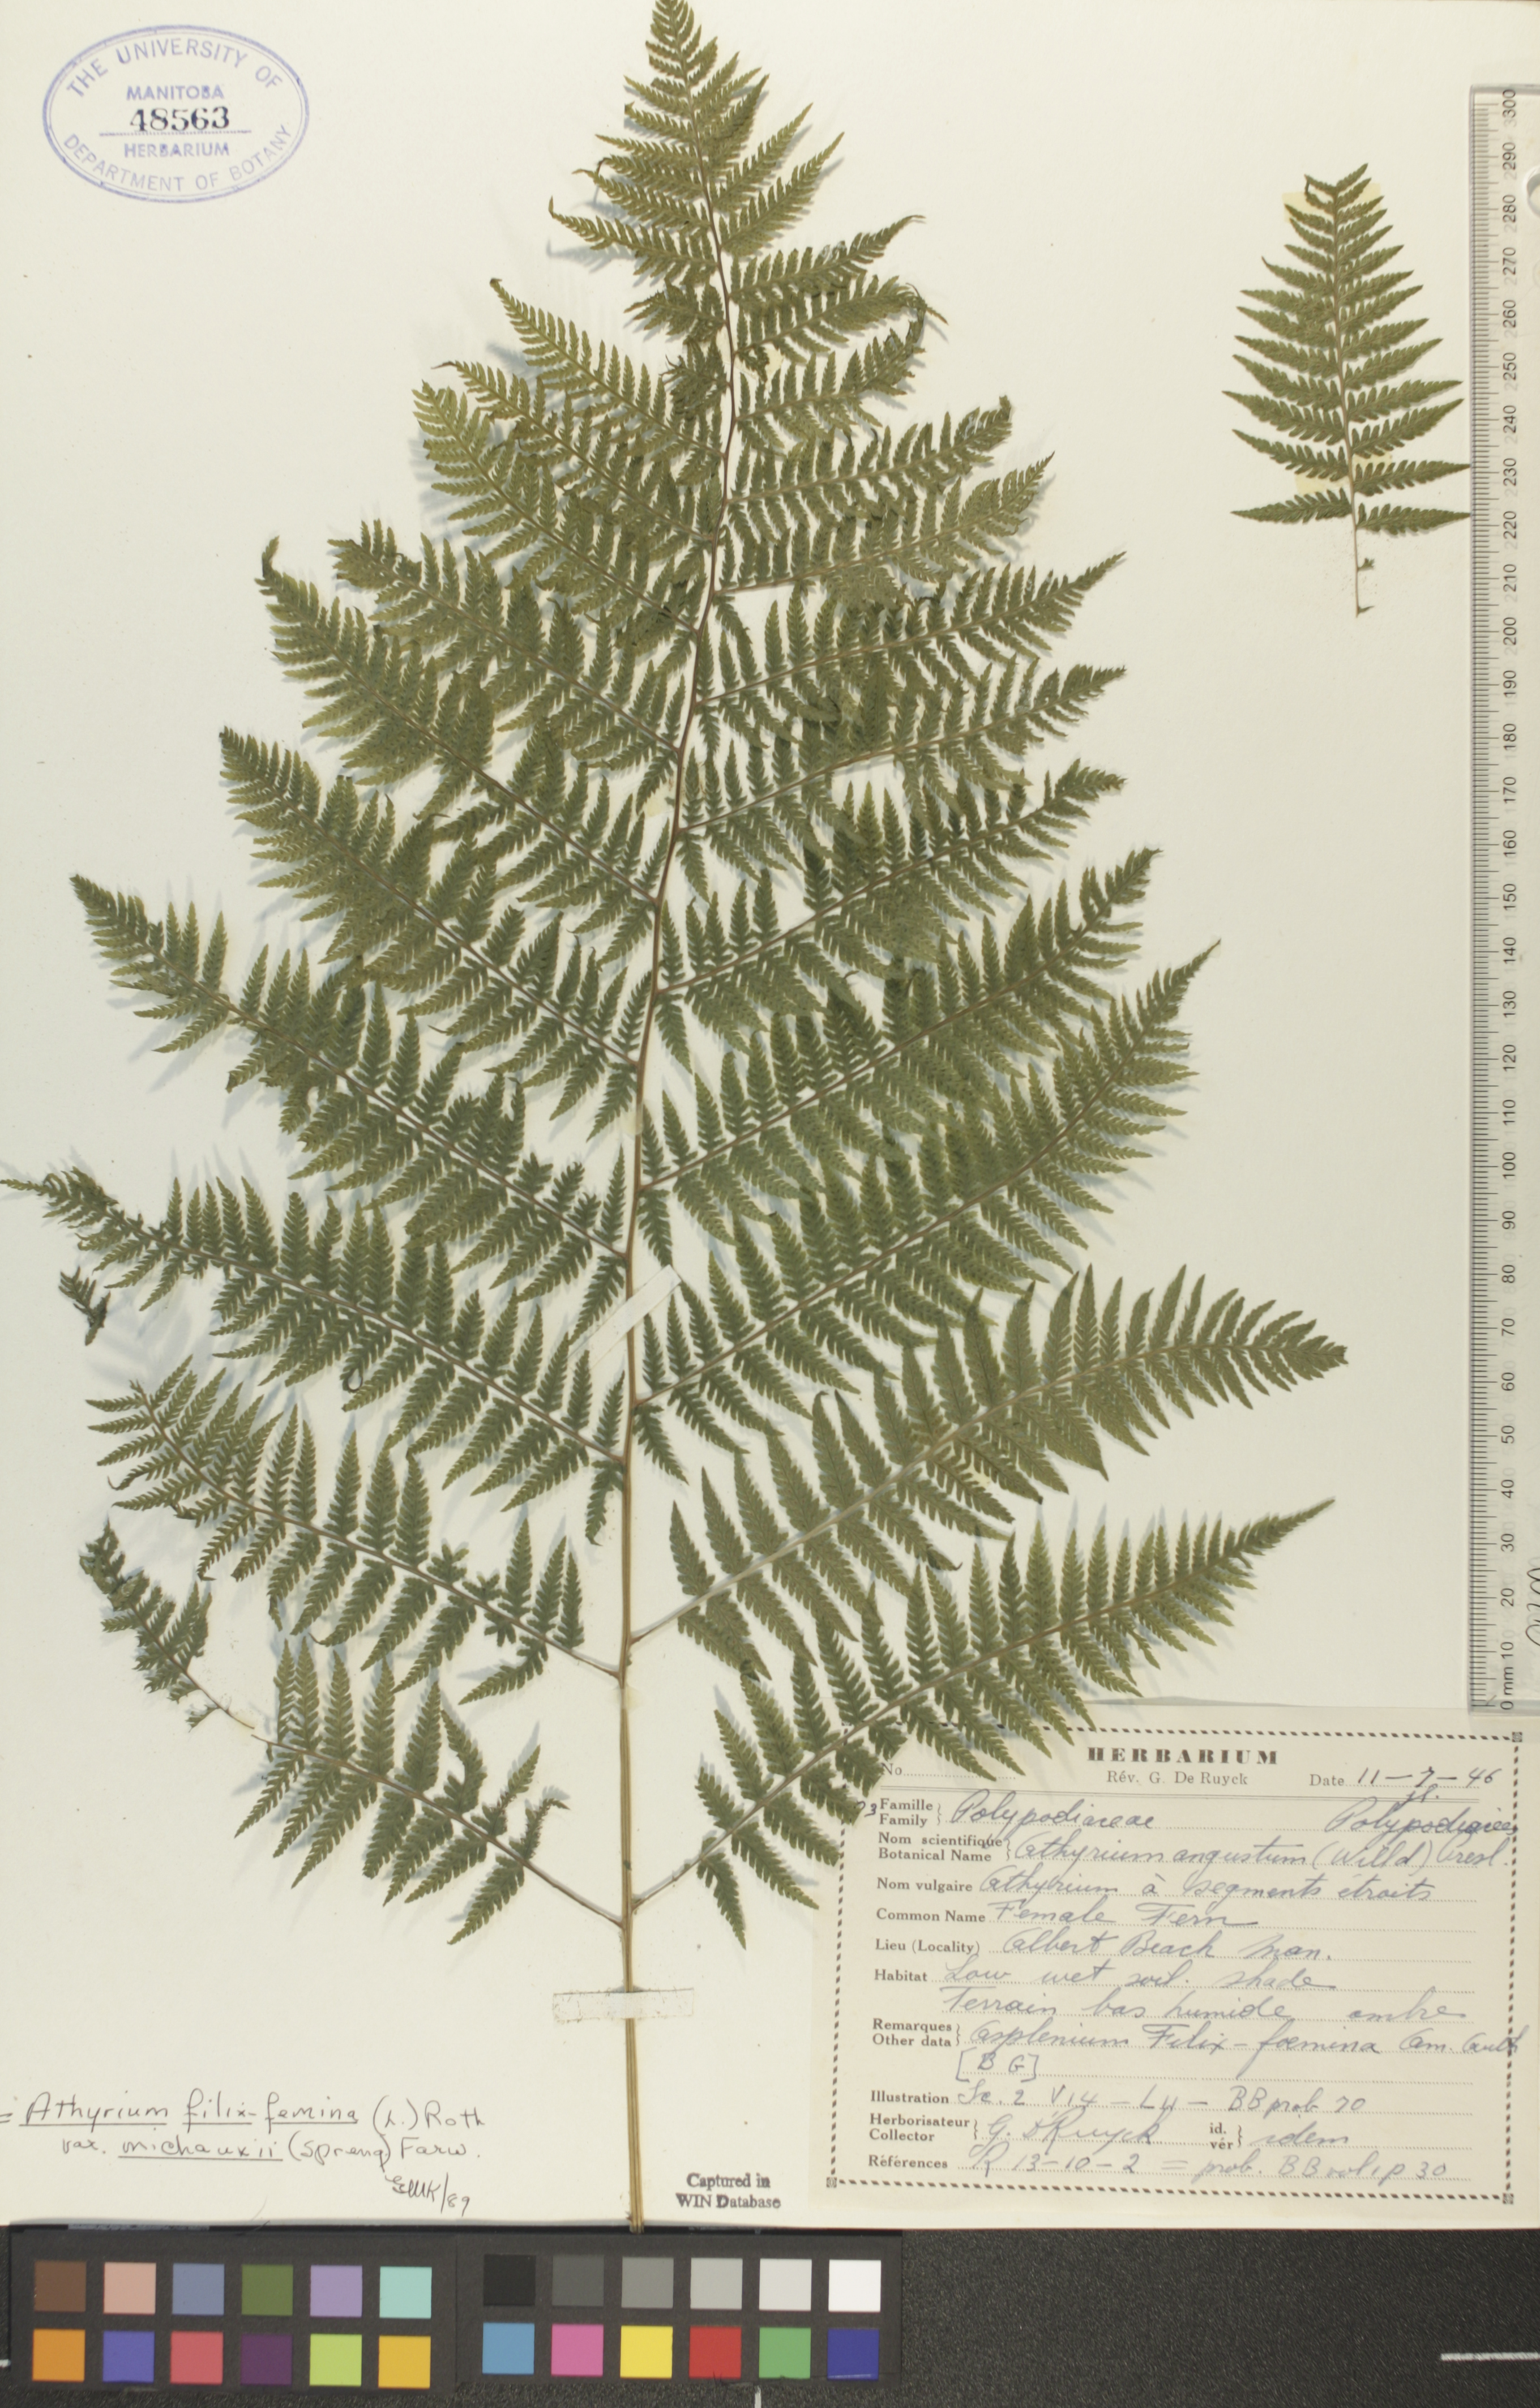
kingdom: Plantae
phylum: Tracheophyta
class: Polypodiopsida
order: Polypodiales
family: Athyriaceae
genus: Athyrium
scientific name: Athyrium angustum
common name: Northern lady fern
